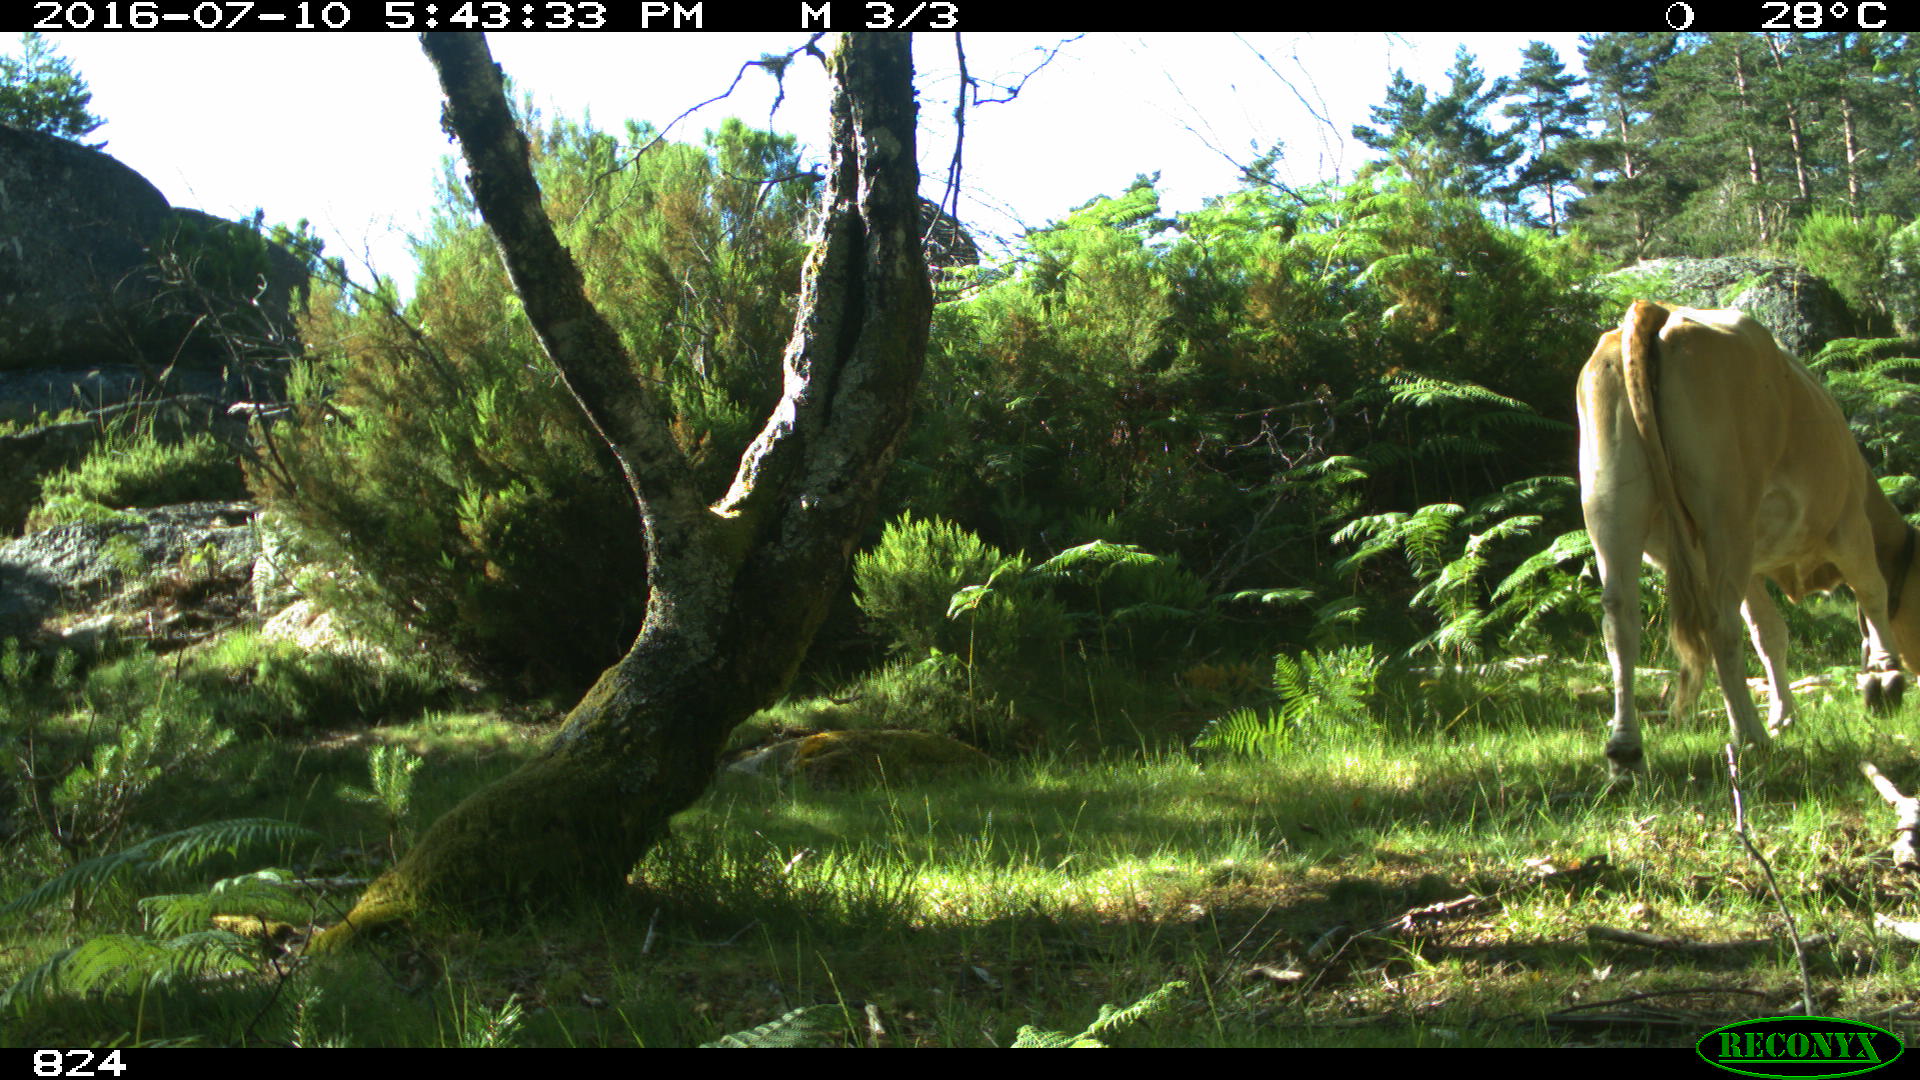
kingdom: Animalia
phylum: Chordata
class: Mammalia
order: Artiodactyla
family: Bovidae
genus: Bos
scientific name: Bos taurus
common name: Domesticated cattle
